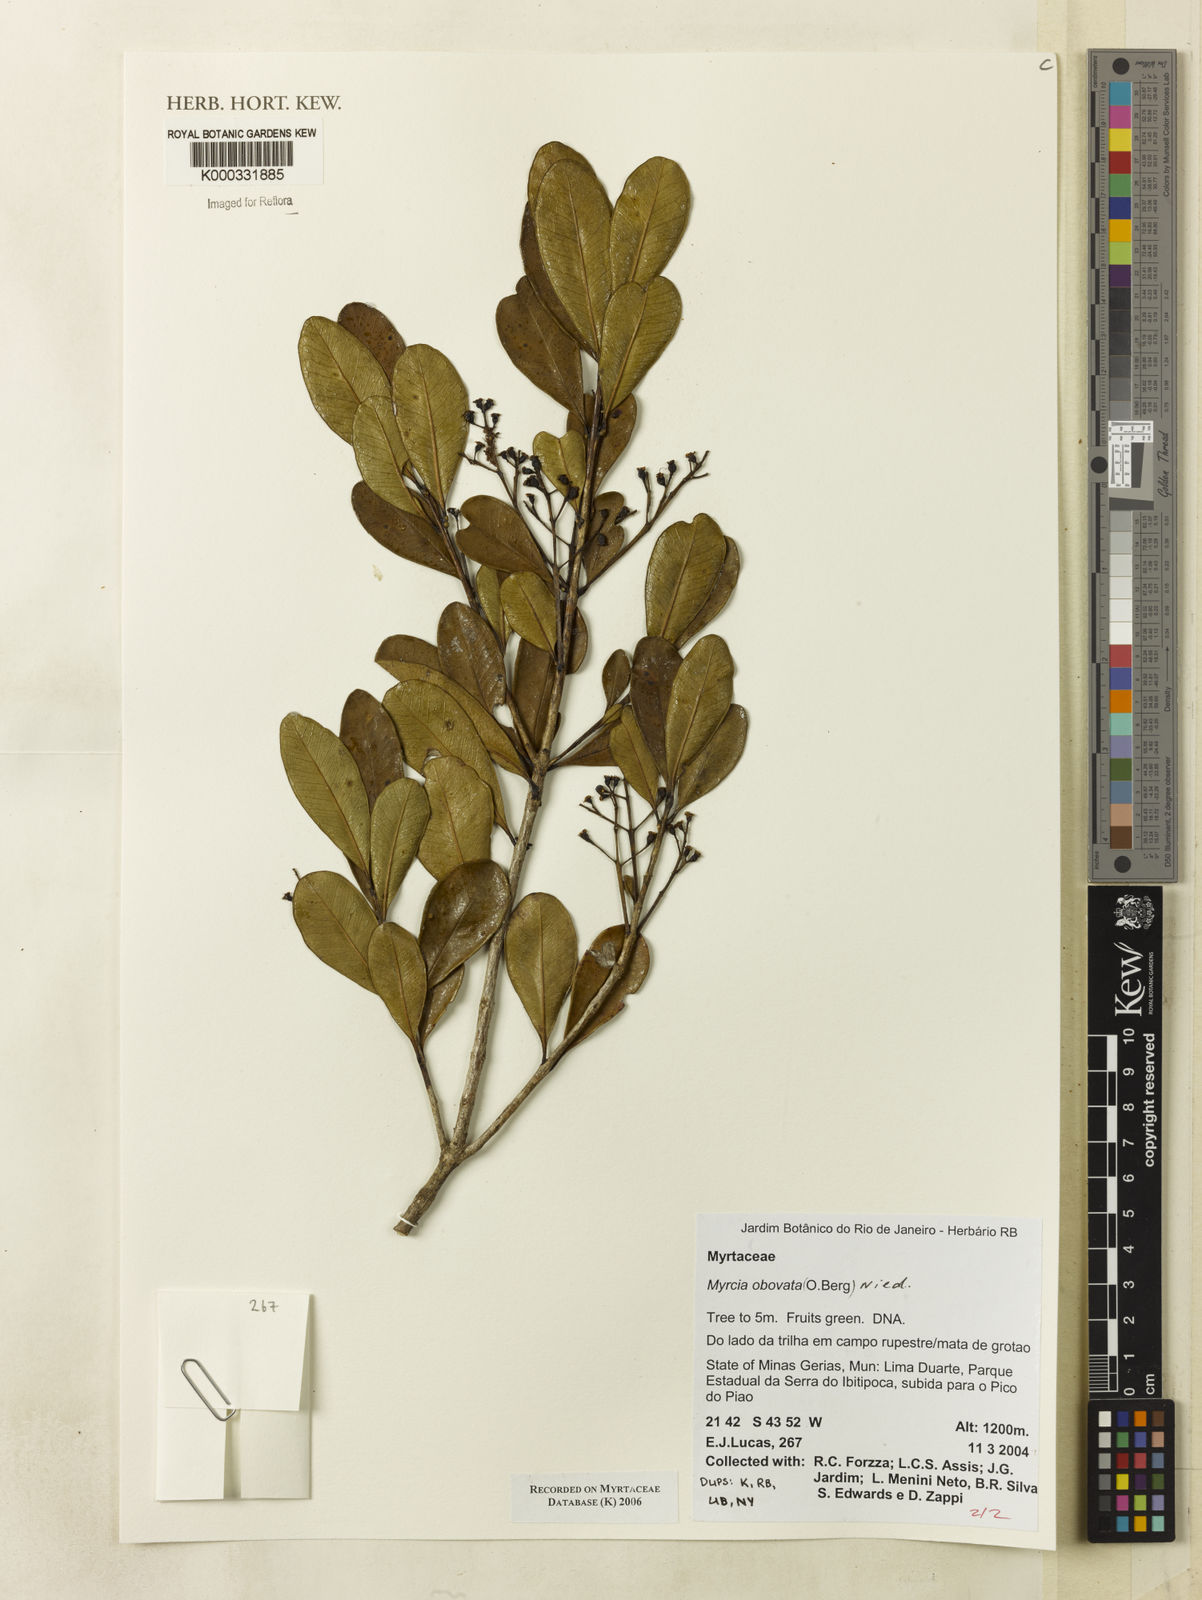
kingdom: Plantae
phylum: Tracheophyta
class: Magnoliopsida
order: Myrtales
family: Myrtaceae
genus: Myrcia
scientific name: Myrcia obovata
